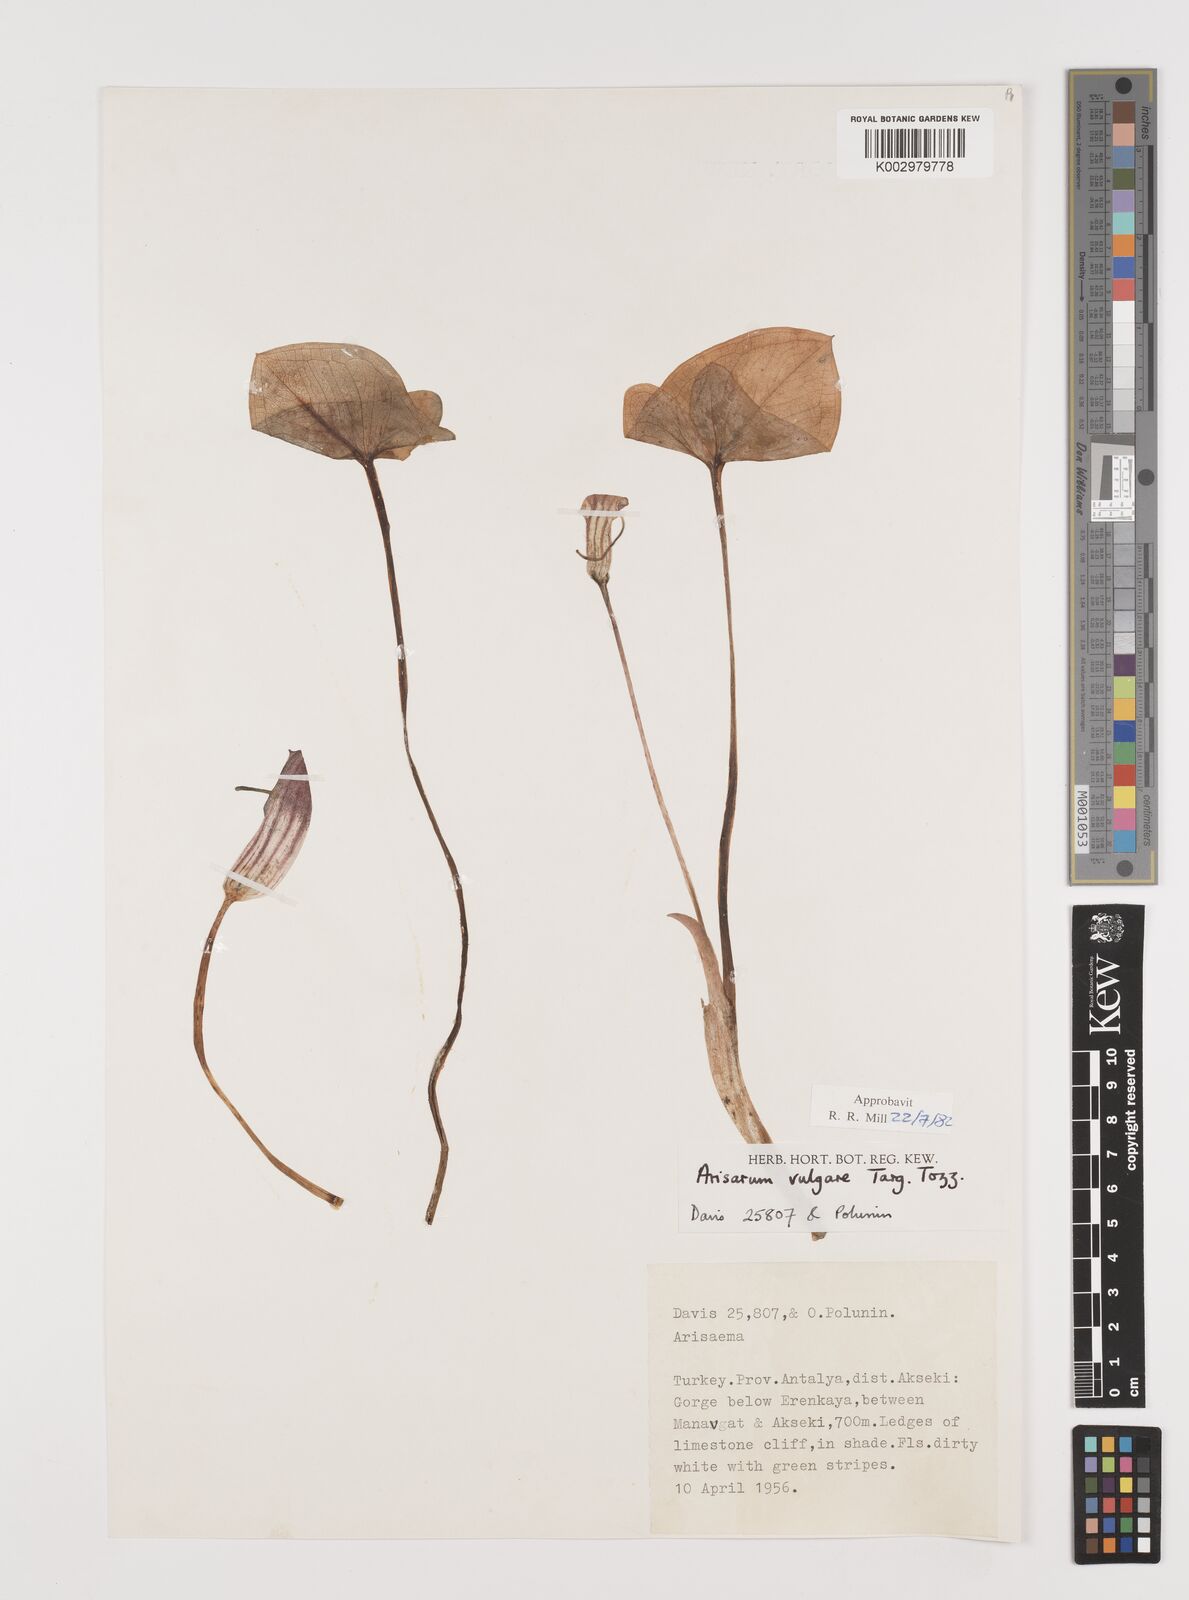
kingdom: Plantae
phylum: Tracheophyta
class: Liliopsida
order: Alismatales
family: Araceae
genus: Arisarum
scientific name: Arisarum vulgare
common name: Common arisarum
